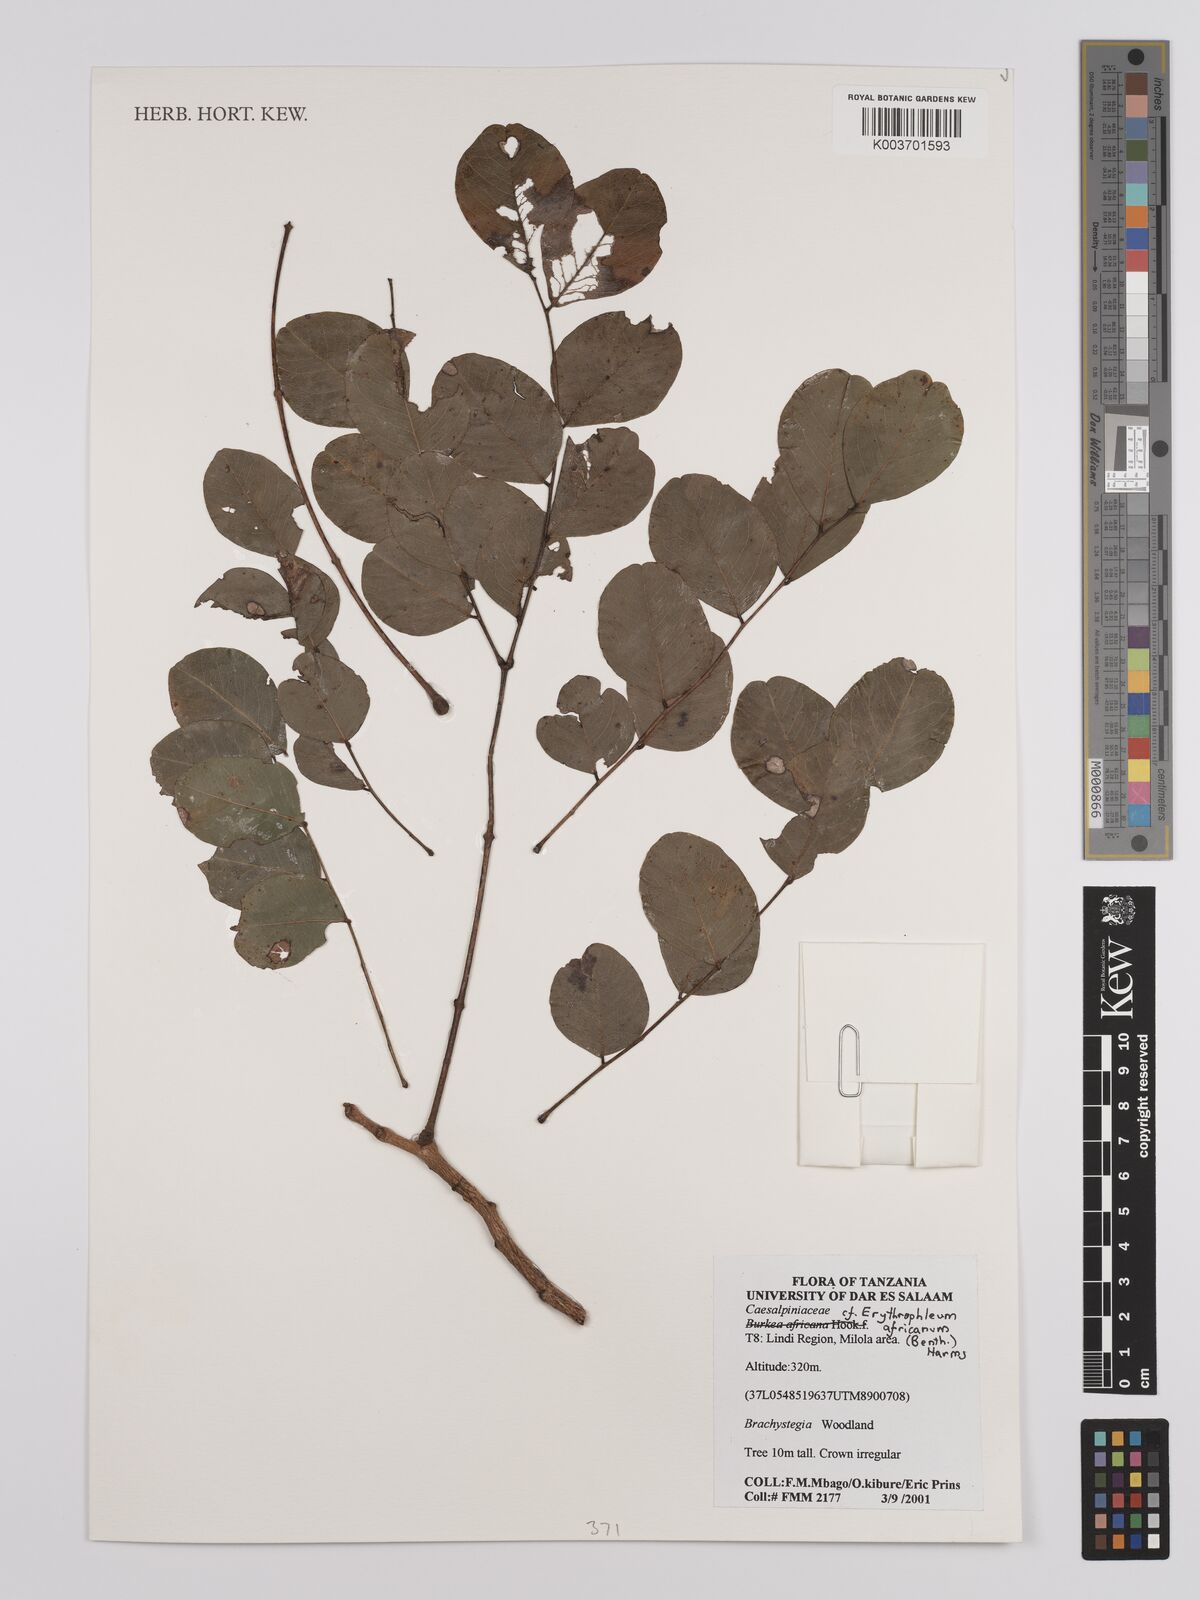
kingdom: Plantae
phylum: Tracheophyta
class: Magnoliopsida
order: Fabales
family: Fabaceae
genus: Erythrophleum
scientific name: Erythrophleum africanum
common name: African blackwood
